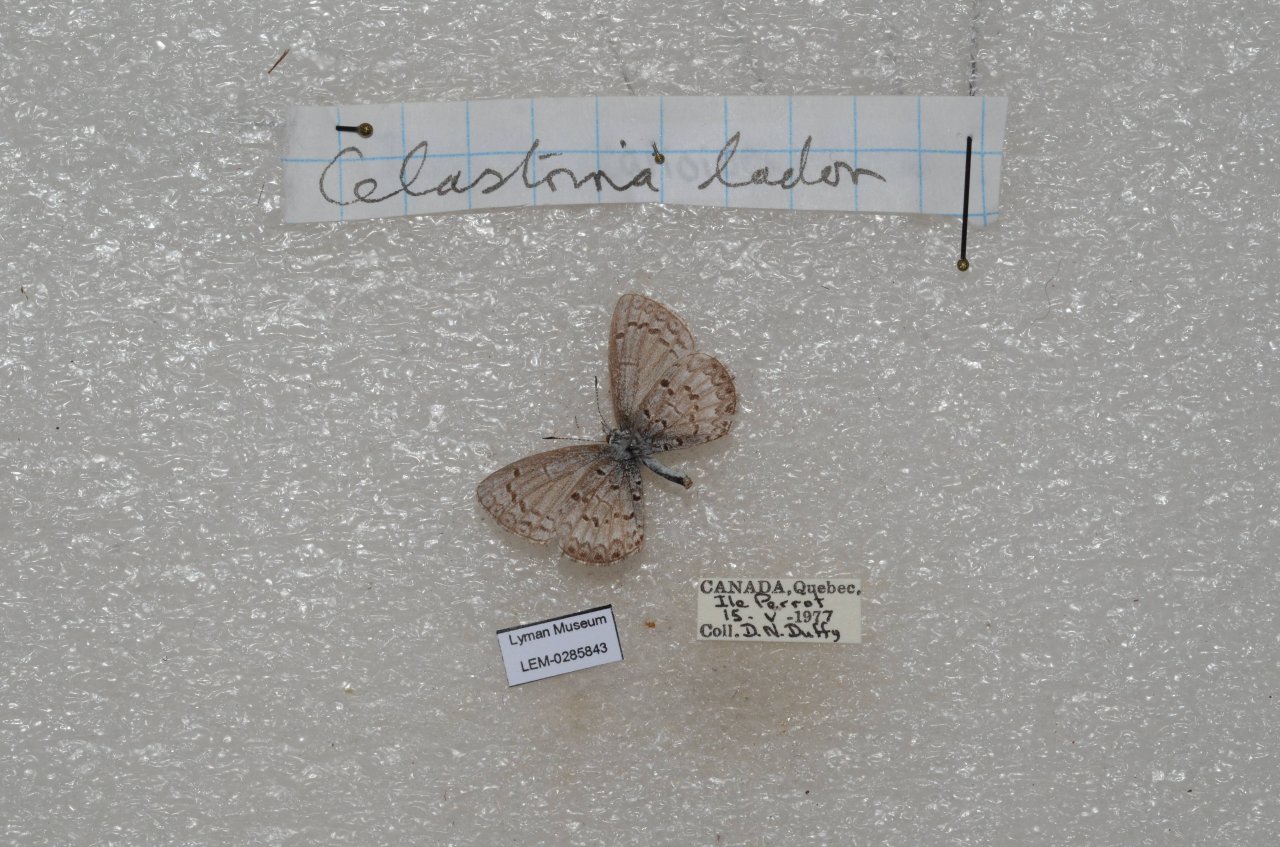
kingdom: Animalia
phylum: Arthropoda
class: Insecta
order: Lepidoptera
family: Lycaenidae
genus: Celastrina
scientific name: Celastrina lucia
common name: Northern Spring Azure
